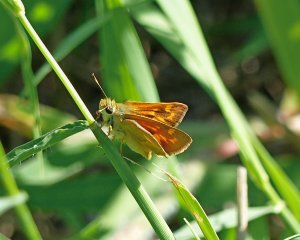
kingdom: Animalia
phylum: Arthropoda
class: Insecta
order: Lepidoptera
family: Hesperiidae
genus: Ochlodes
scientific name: Ochlodes sylvanoides
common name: Woodland Skipper
